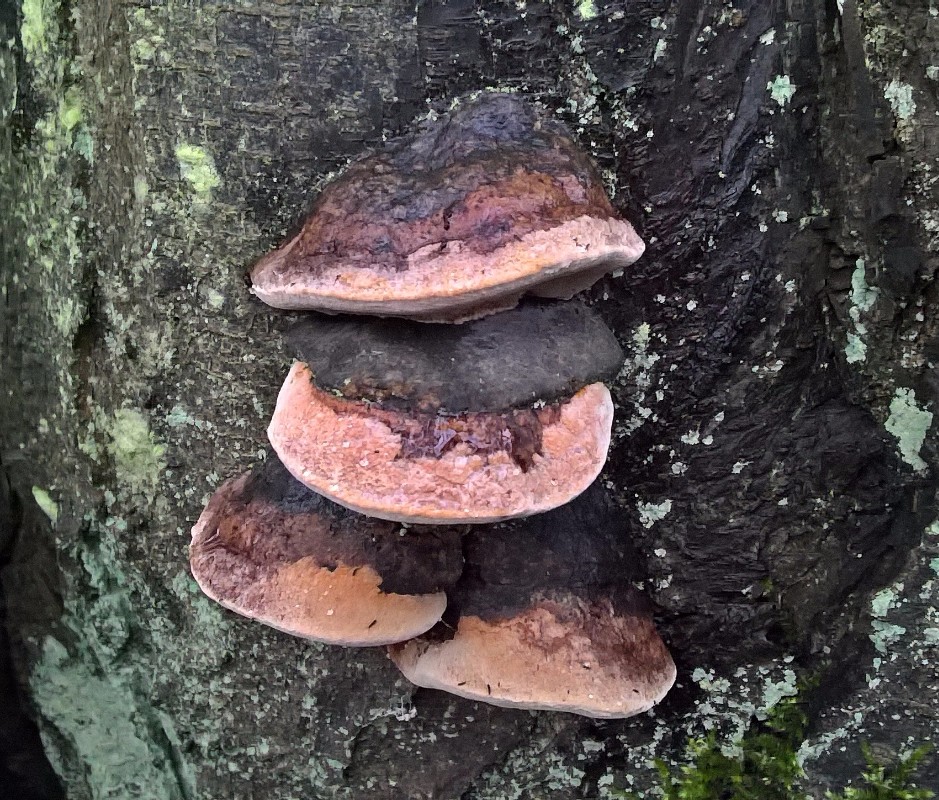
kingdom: Fungi
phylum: Basidiomycota
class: Agaricomycetes
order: Hymenochaetales
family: Hymenochaetaceae
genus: Phellinus
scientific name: Phellinus pomaceus
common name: blomme-ildporesvamp
